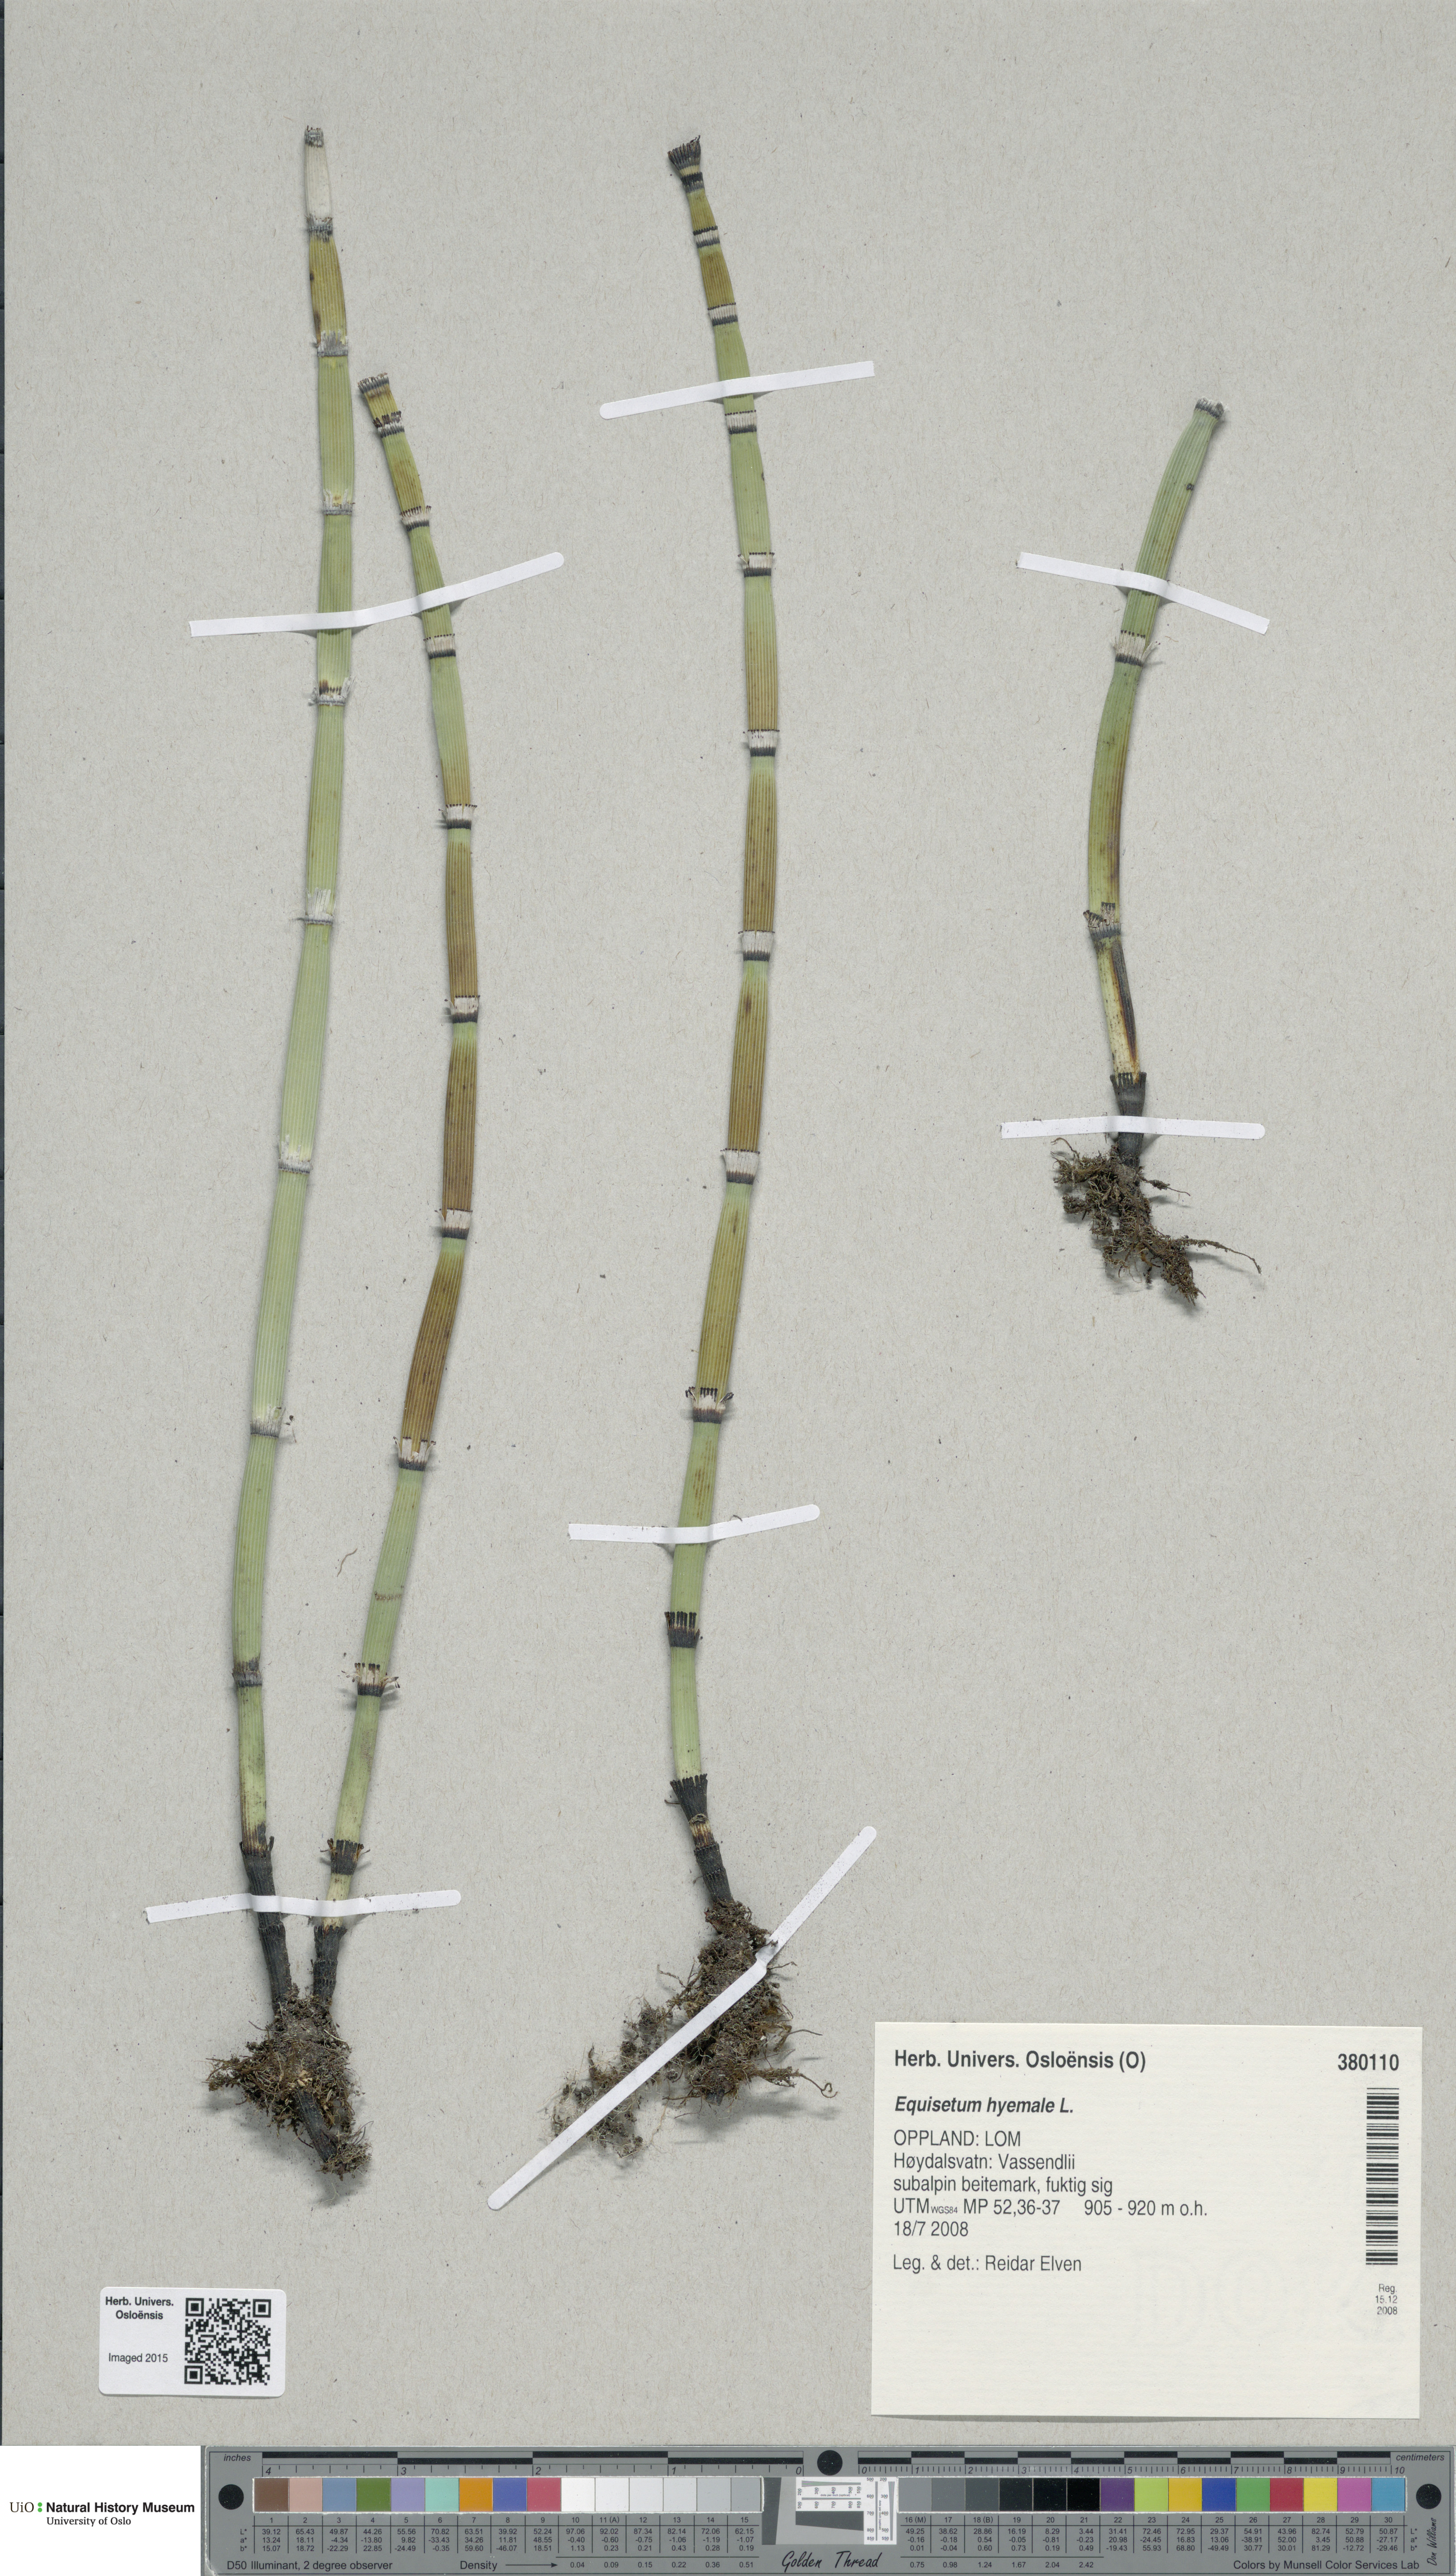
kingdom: Plantae
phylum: Tracheophyta
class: Polypodiopsida
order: Equisetales
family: Equisetaceae
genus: Equisetum
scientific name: Equisetum hyemale
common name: Rough horsetail
